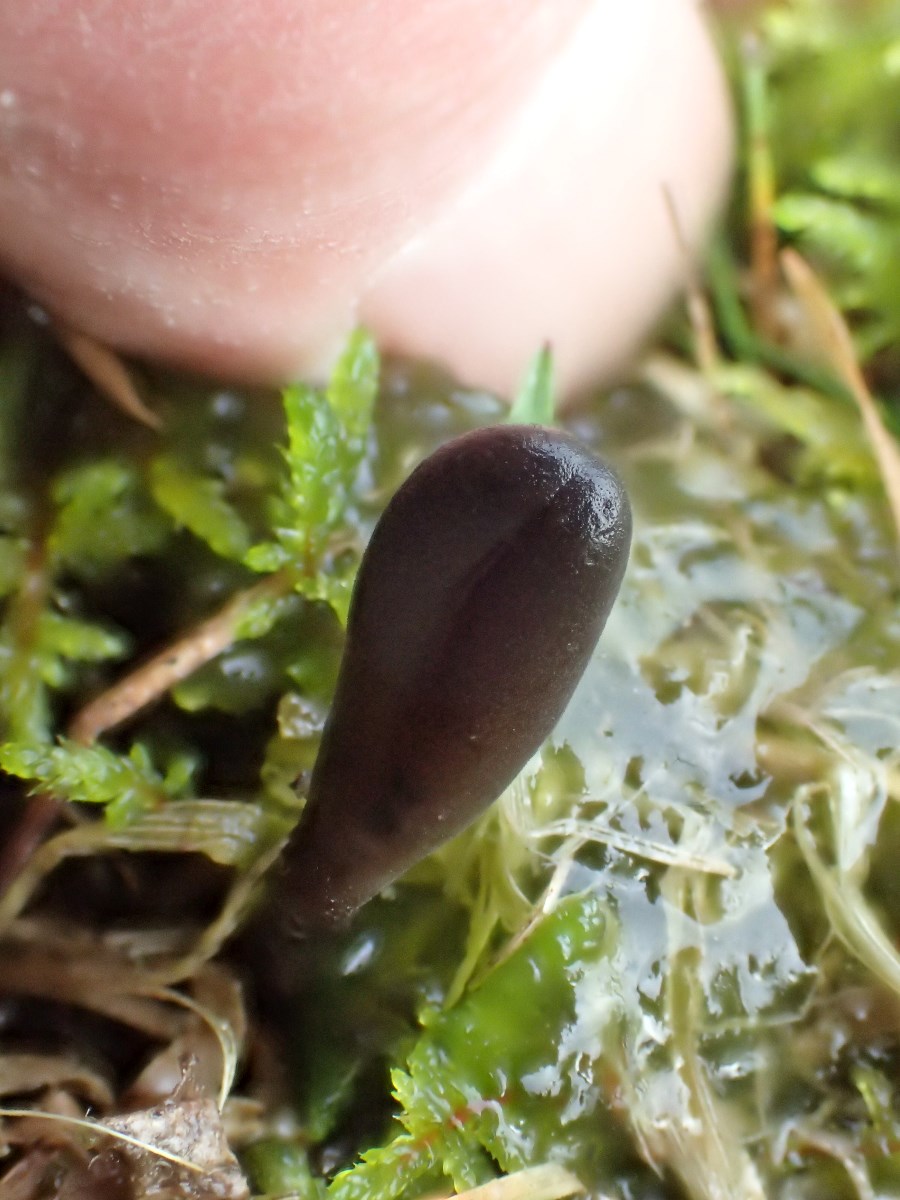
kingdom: Fungi
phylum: Ascomycota
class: Geoglossomycetes
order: Geoglossales
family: Geoglossaceae
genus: Geoglossum
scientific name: Geoglossum starbaeckii
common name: nordlig jordtunge
